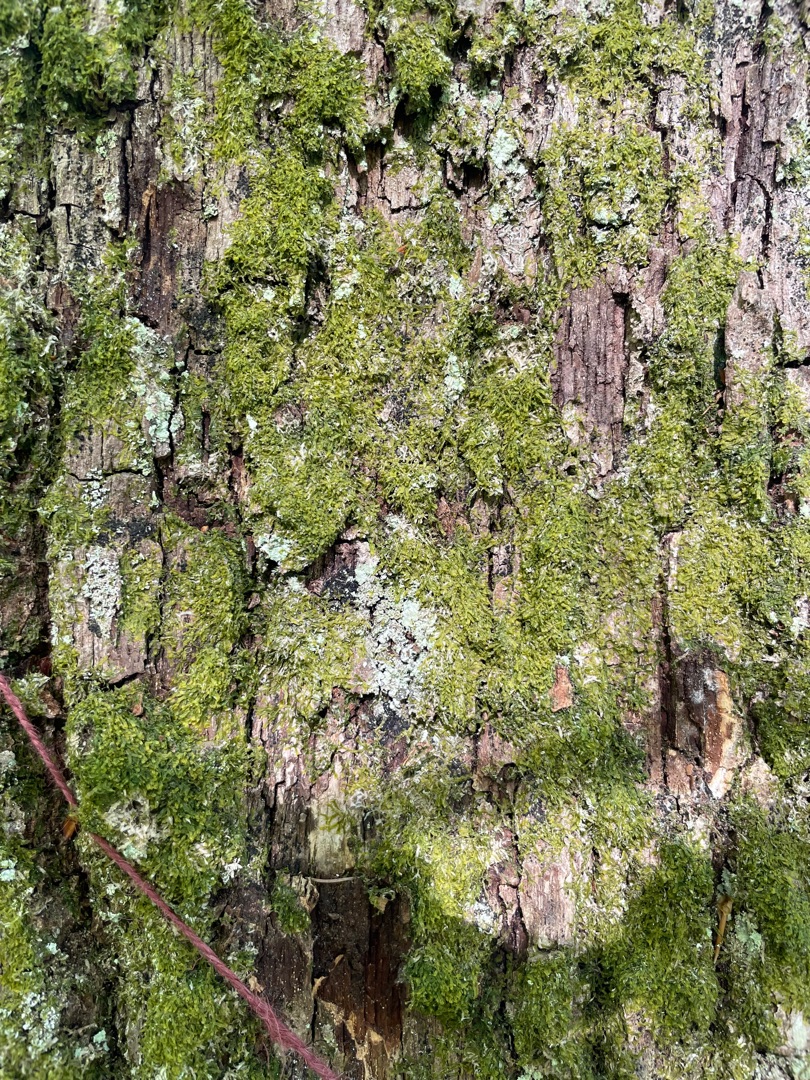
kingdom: Plantae
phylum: Marchantiophyta
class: Jungermanniopsida
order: Metzgeriales
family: Metzgeriaceae
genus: Metzgeria
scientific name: Metzgeria furcata
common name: Almindelig gaffelløv
